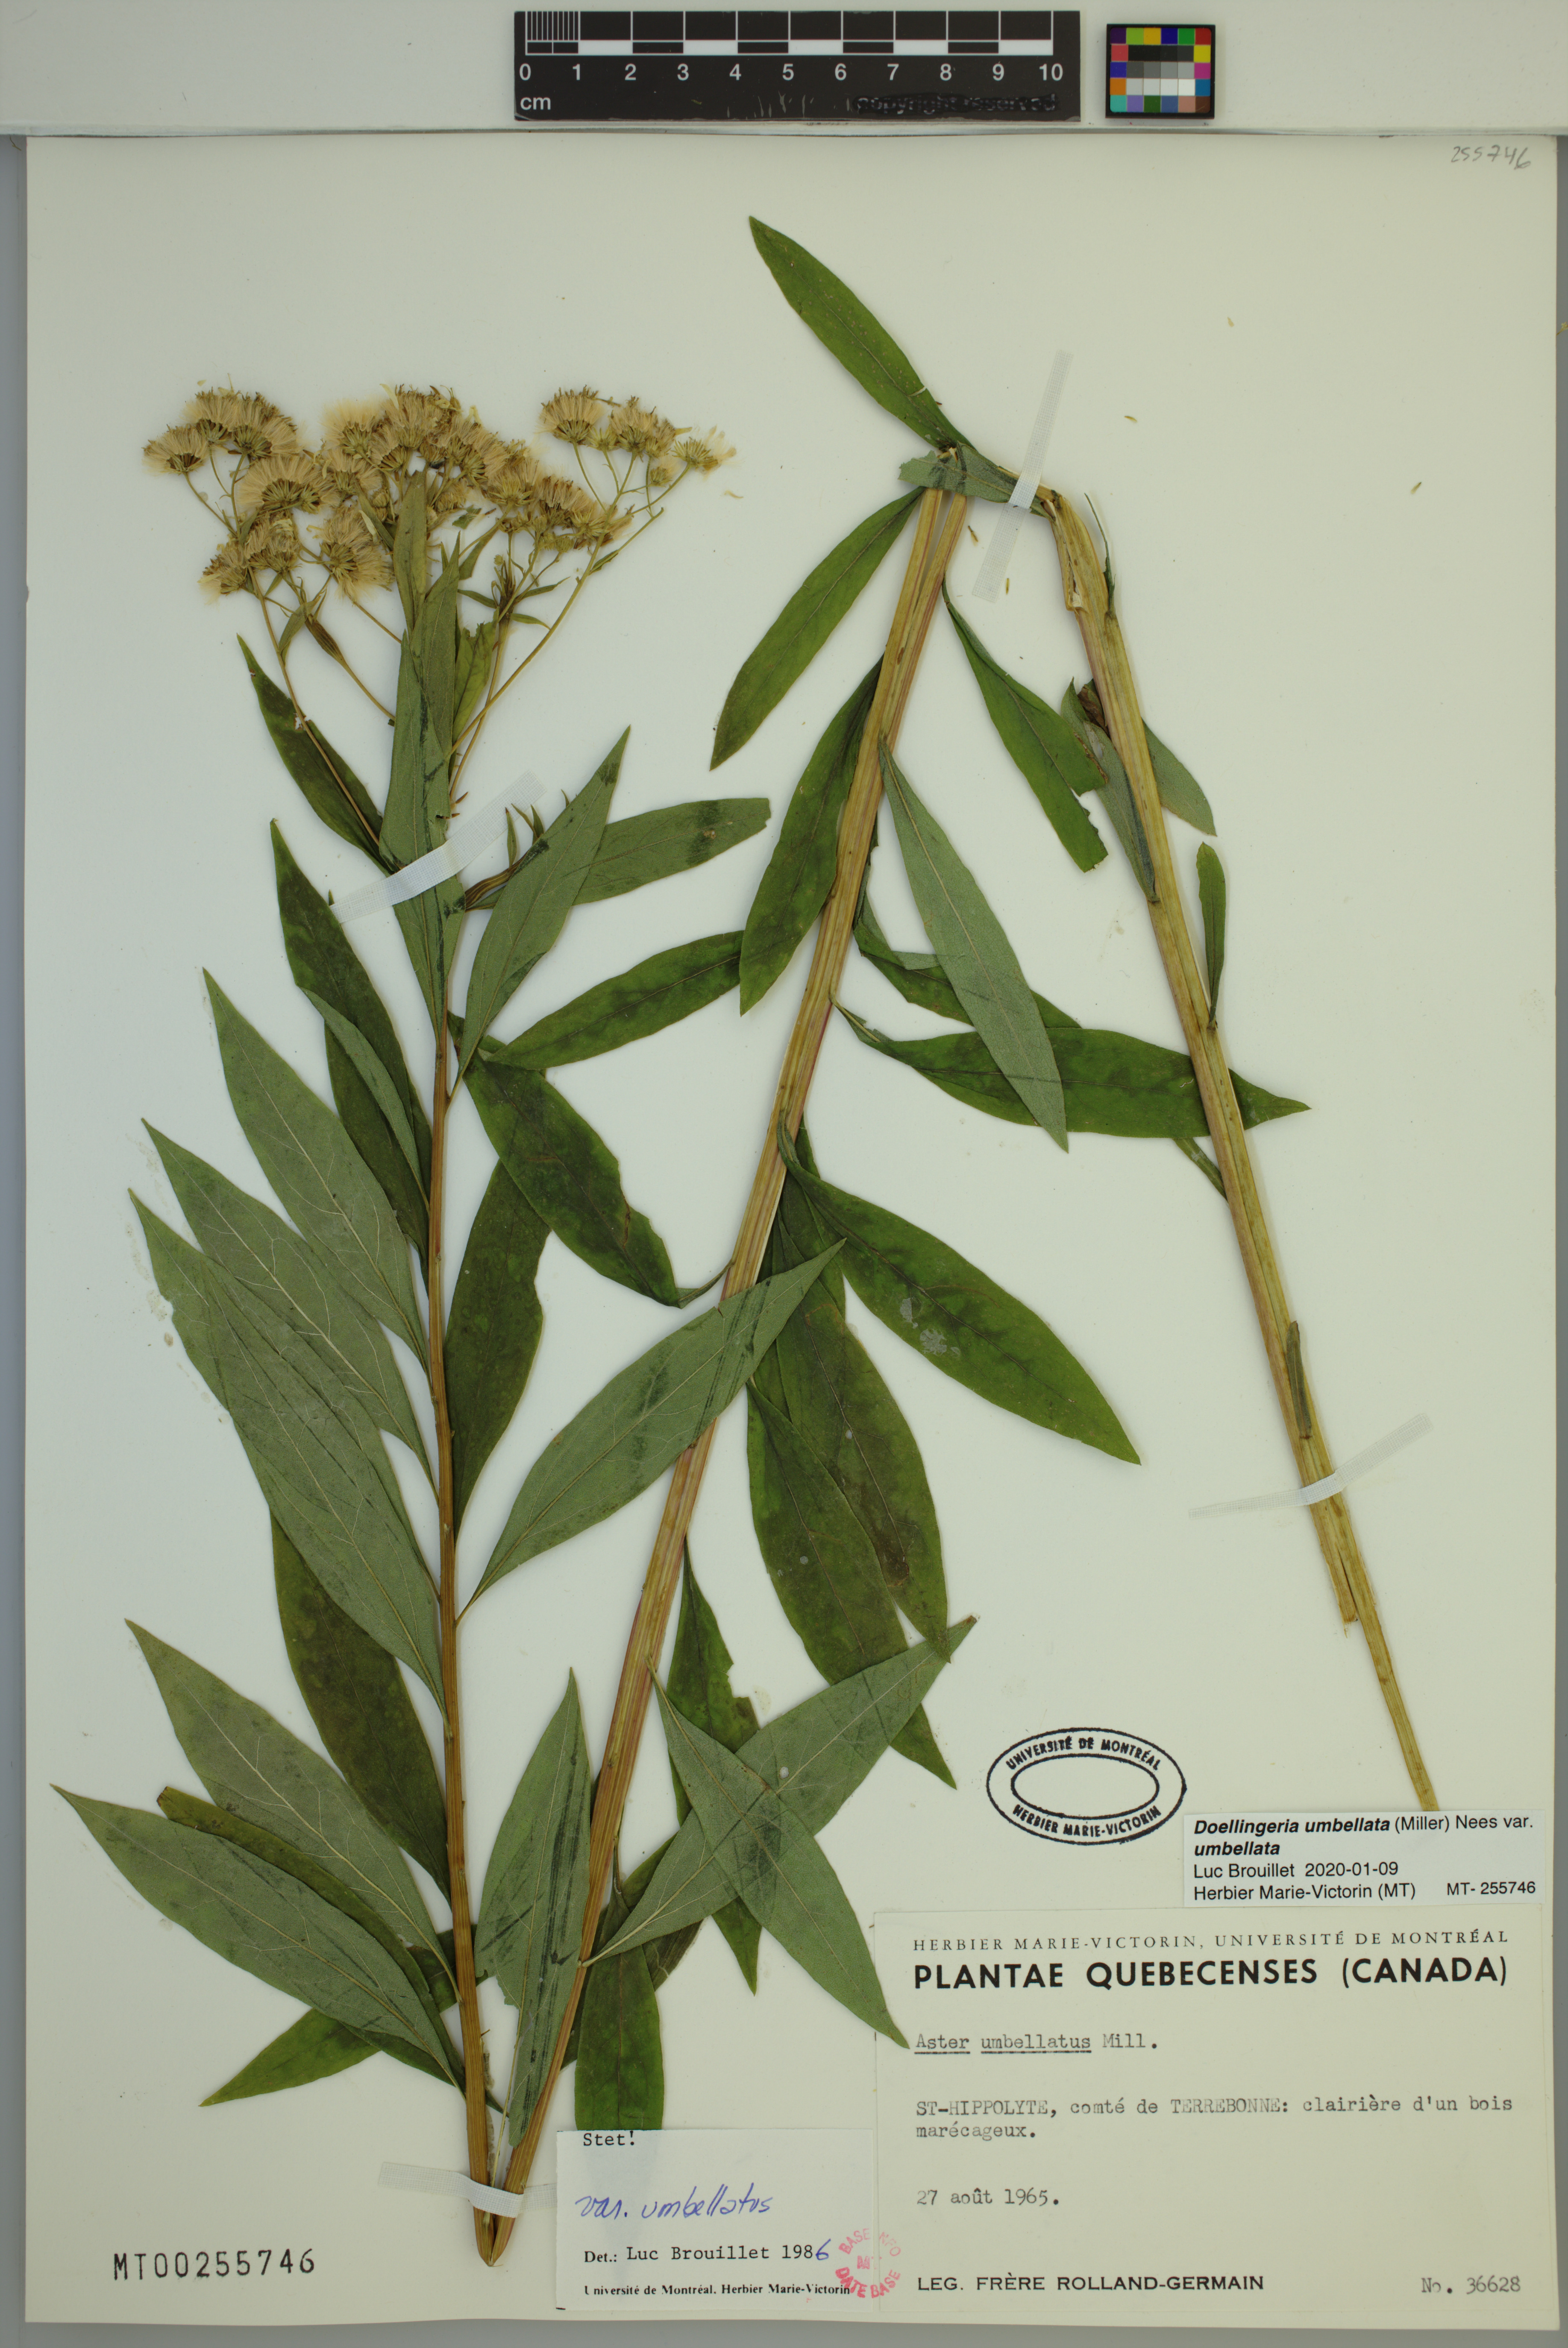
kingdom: Plantae
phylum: Tracheophyta
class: Magnoliopsida
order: Asterales
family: Asteraceae
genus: Doellingeria
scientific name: Doellingeria umbellata
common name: Flat-top white aster
